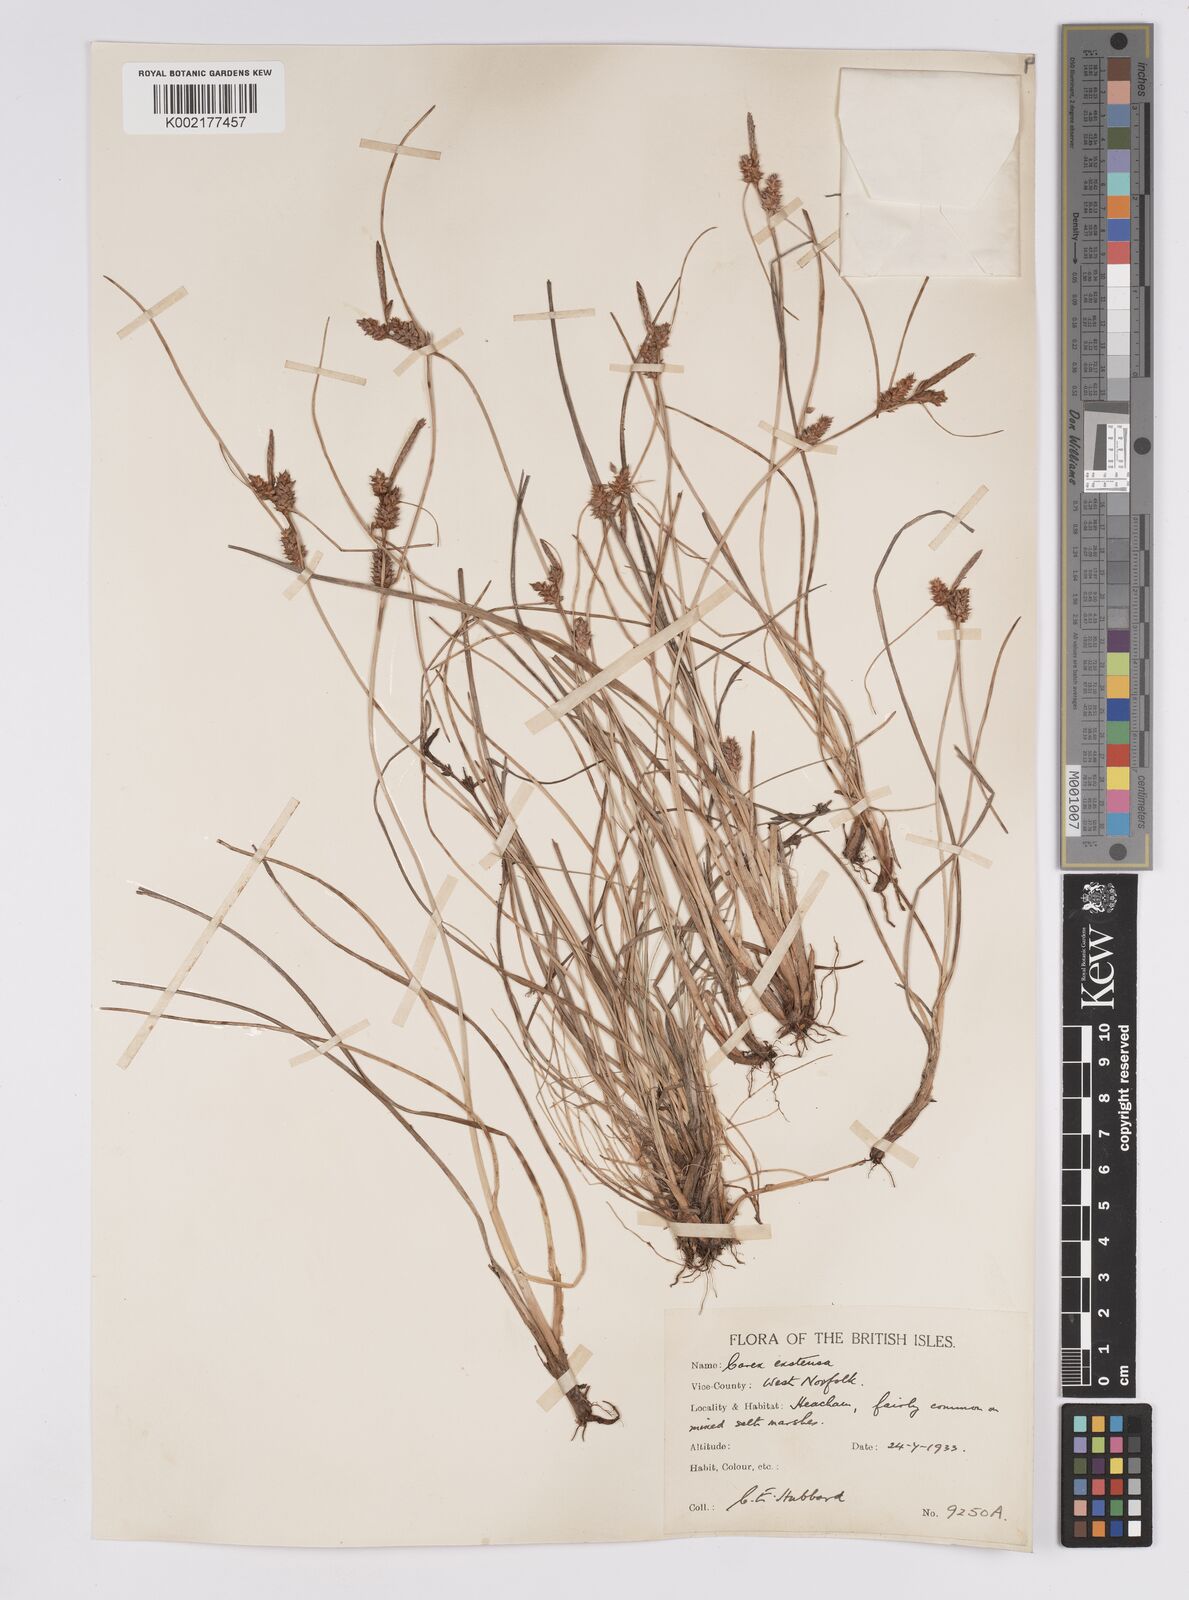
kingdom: Plantae
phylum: Tracheophyta
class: Liliopsida
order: Poales
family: Cyperaceae
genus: Carex
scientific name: Carex extensa
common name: Long-bracted sedge
